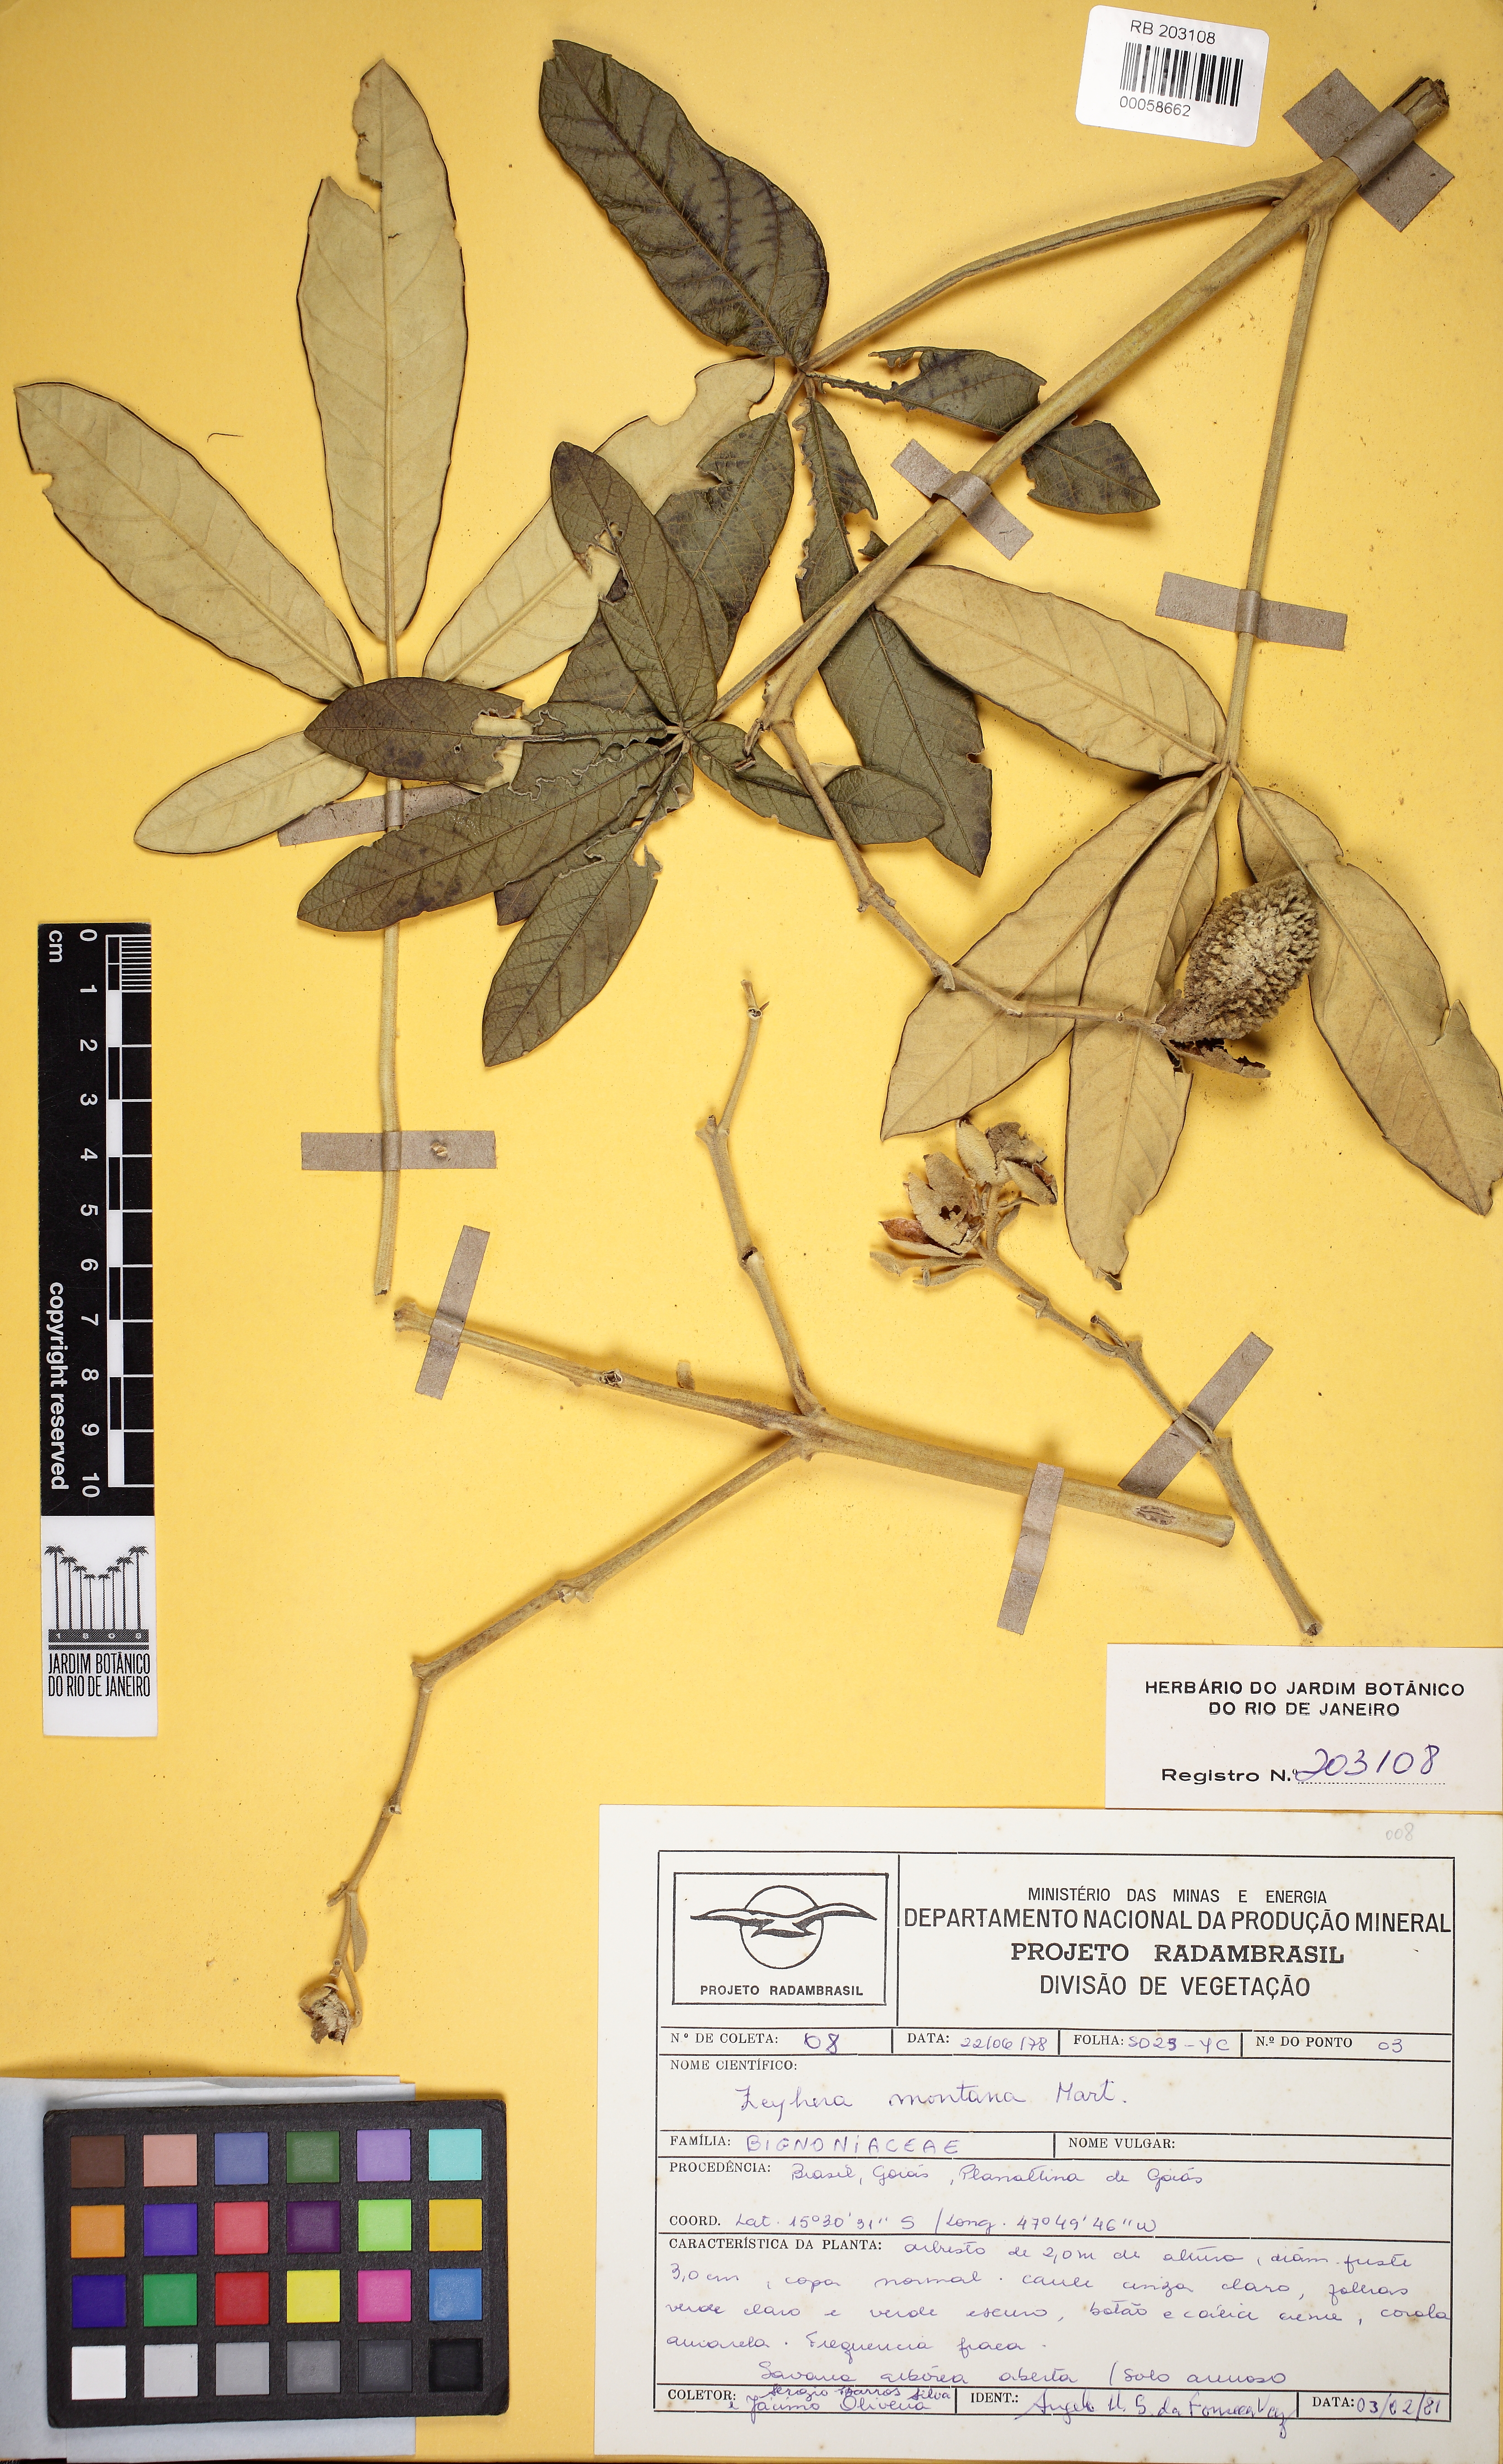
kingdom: Plantae
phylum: Tracheophyta
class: Magnoliopsida
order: Lamiales
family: Bignoniaceae
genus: Zeyheria
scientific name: Zeyheria montana
